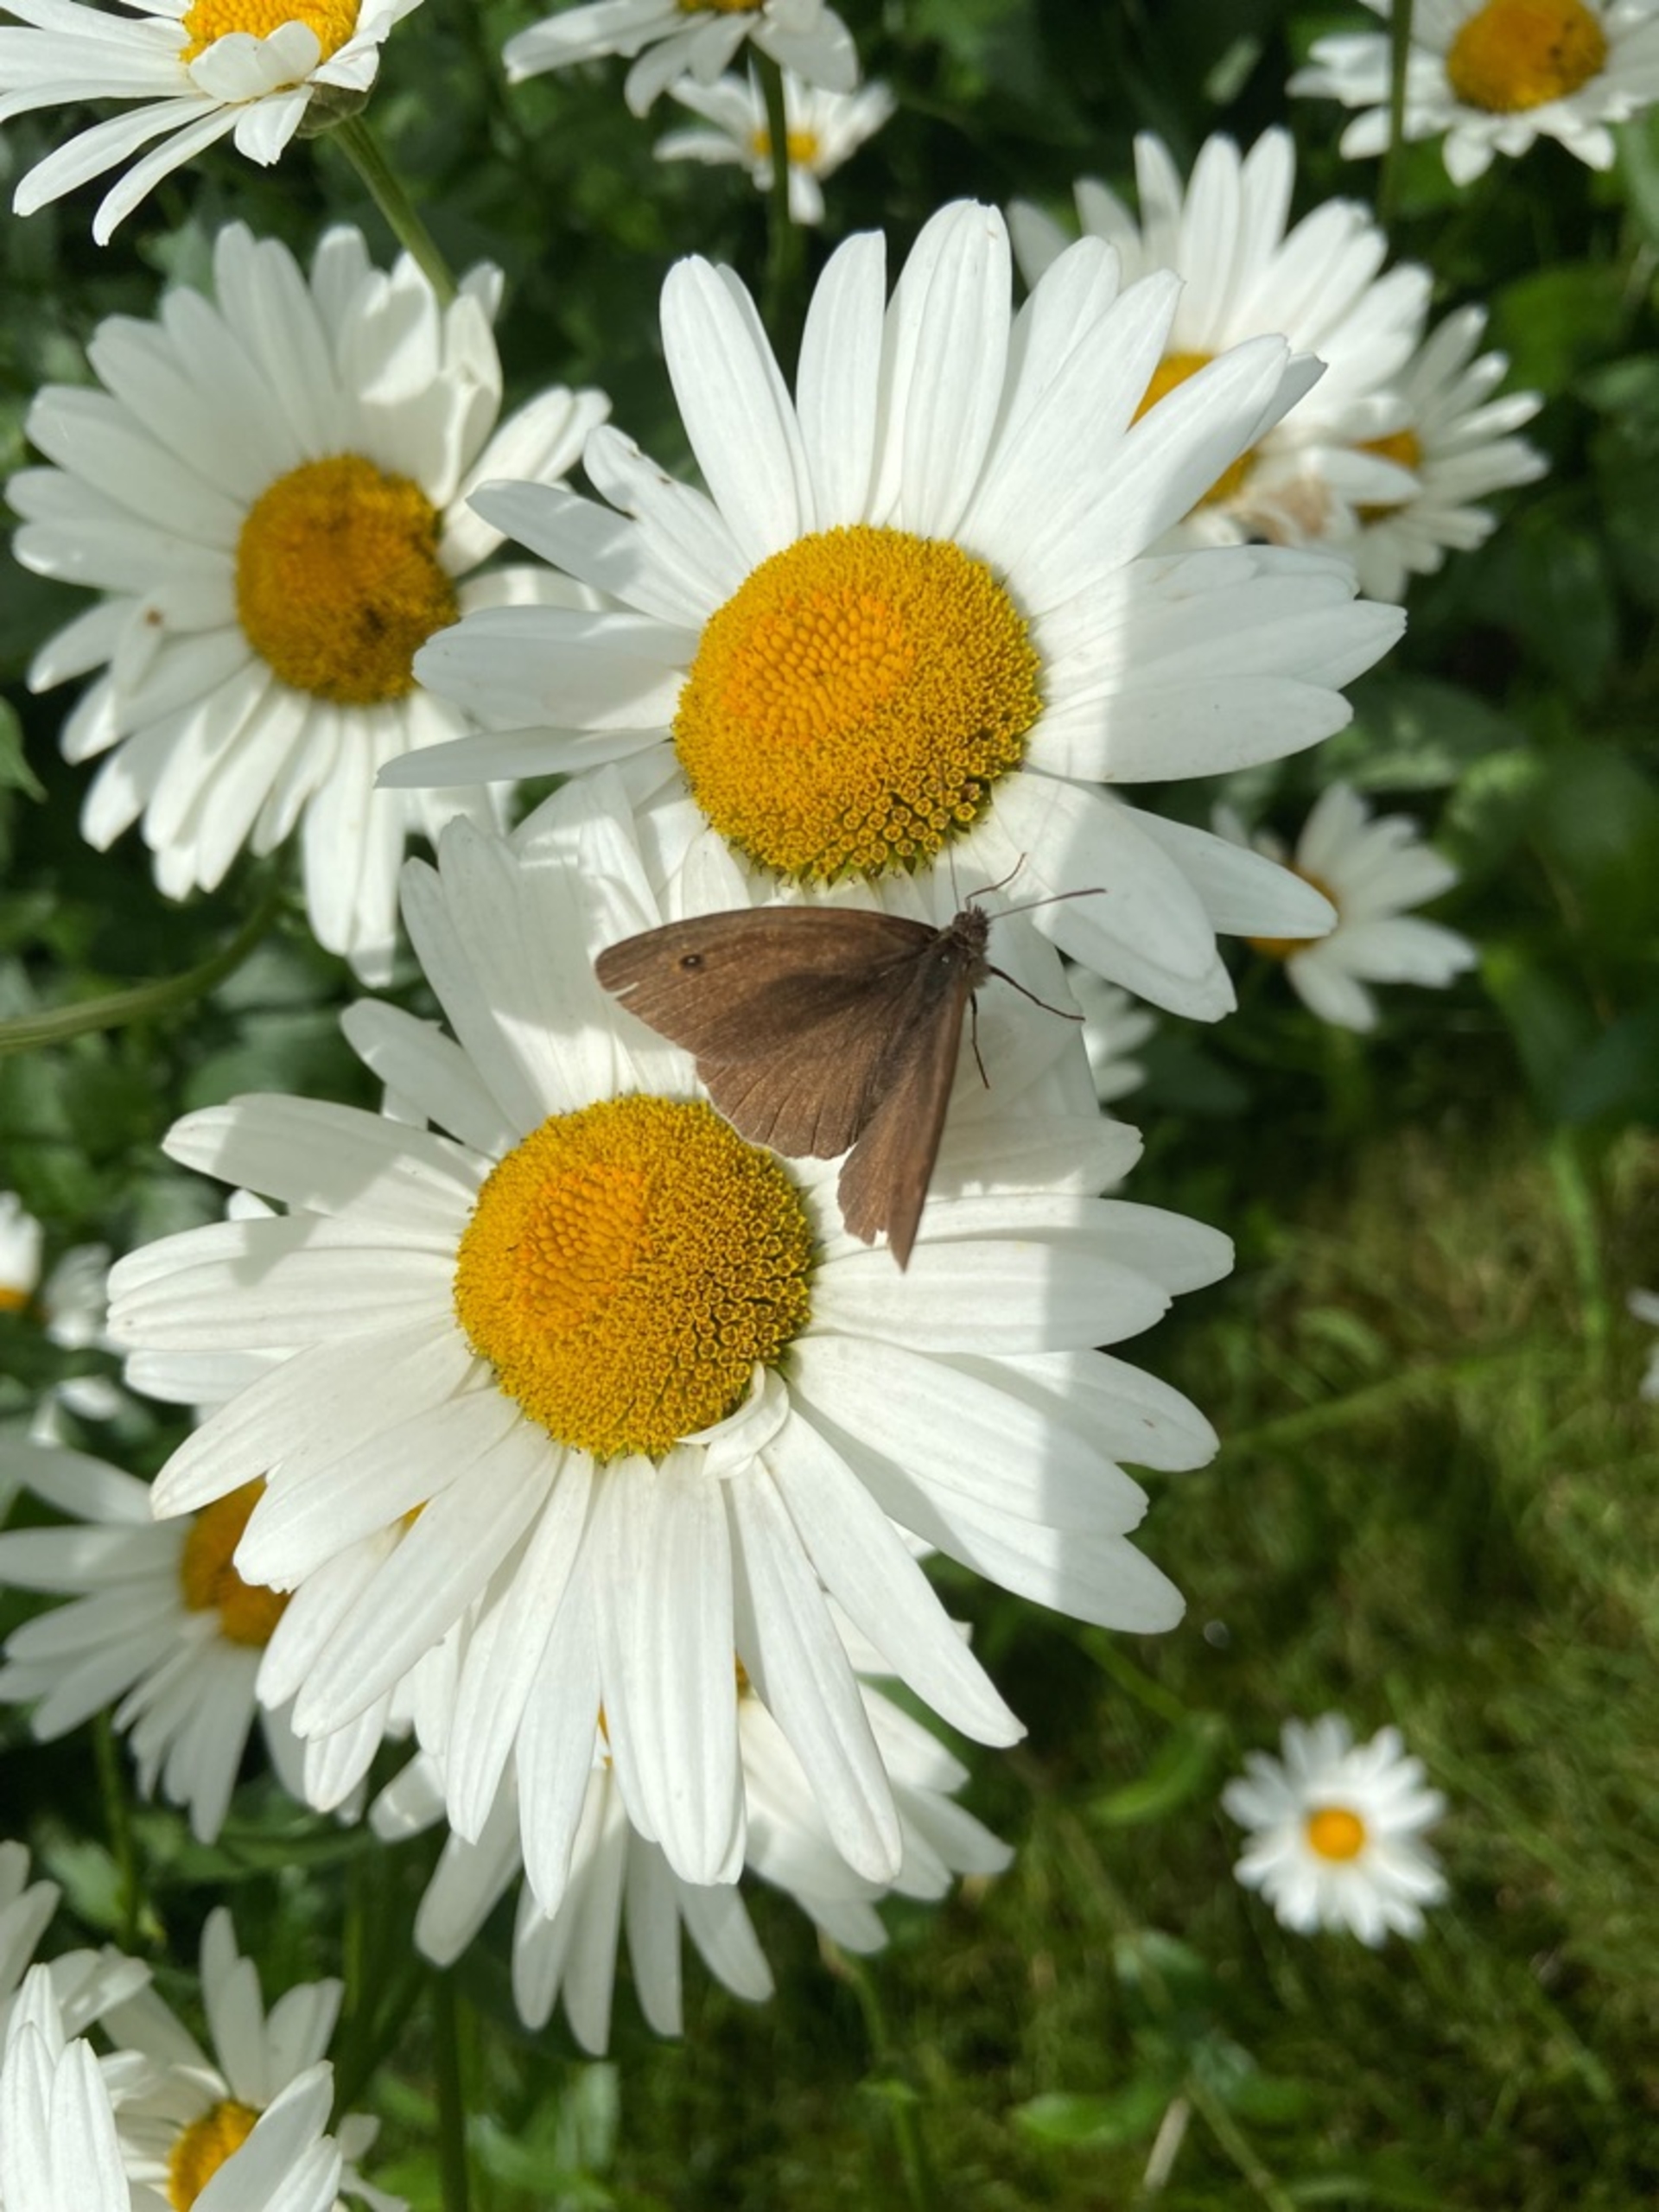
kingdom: Animalia
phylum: Arthropoda
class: Insecta
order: Lepidoptera
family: Nymphalidae
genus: Maniola
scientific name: Maniola jurtina
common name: Græsrandøje
